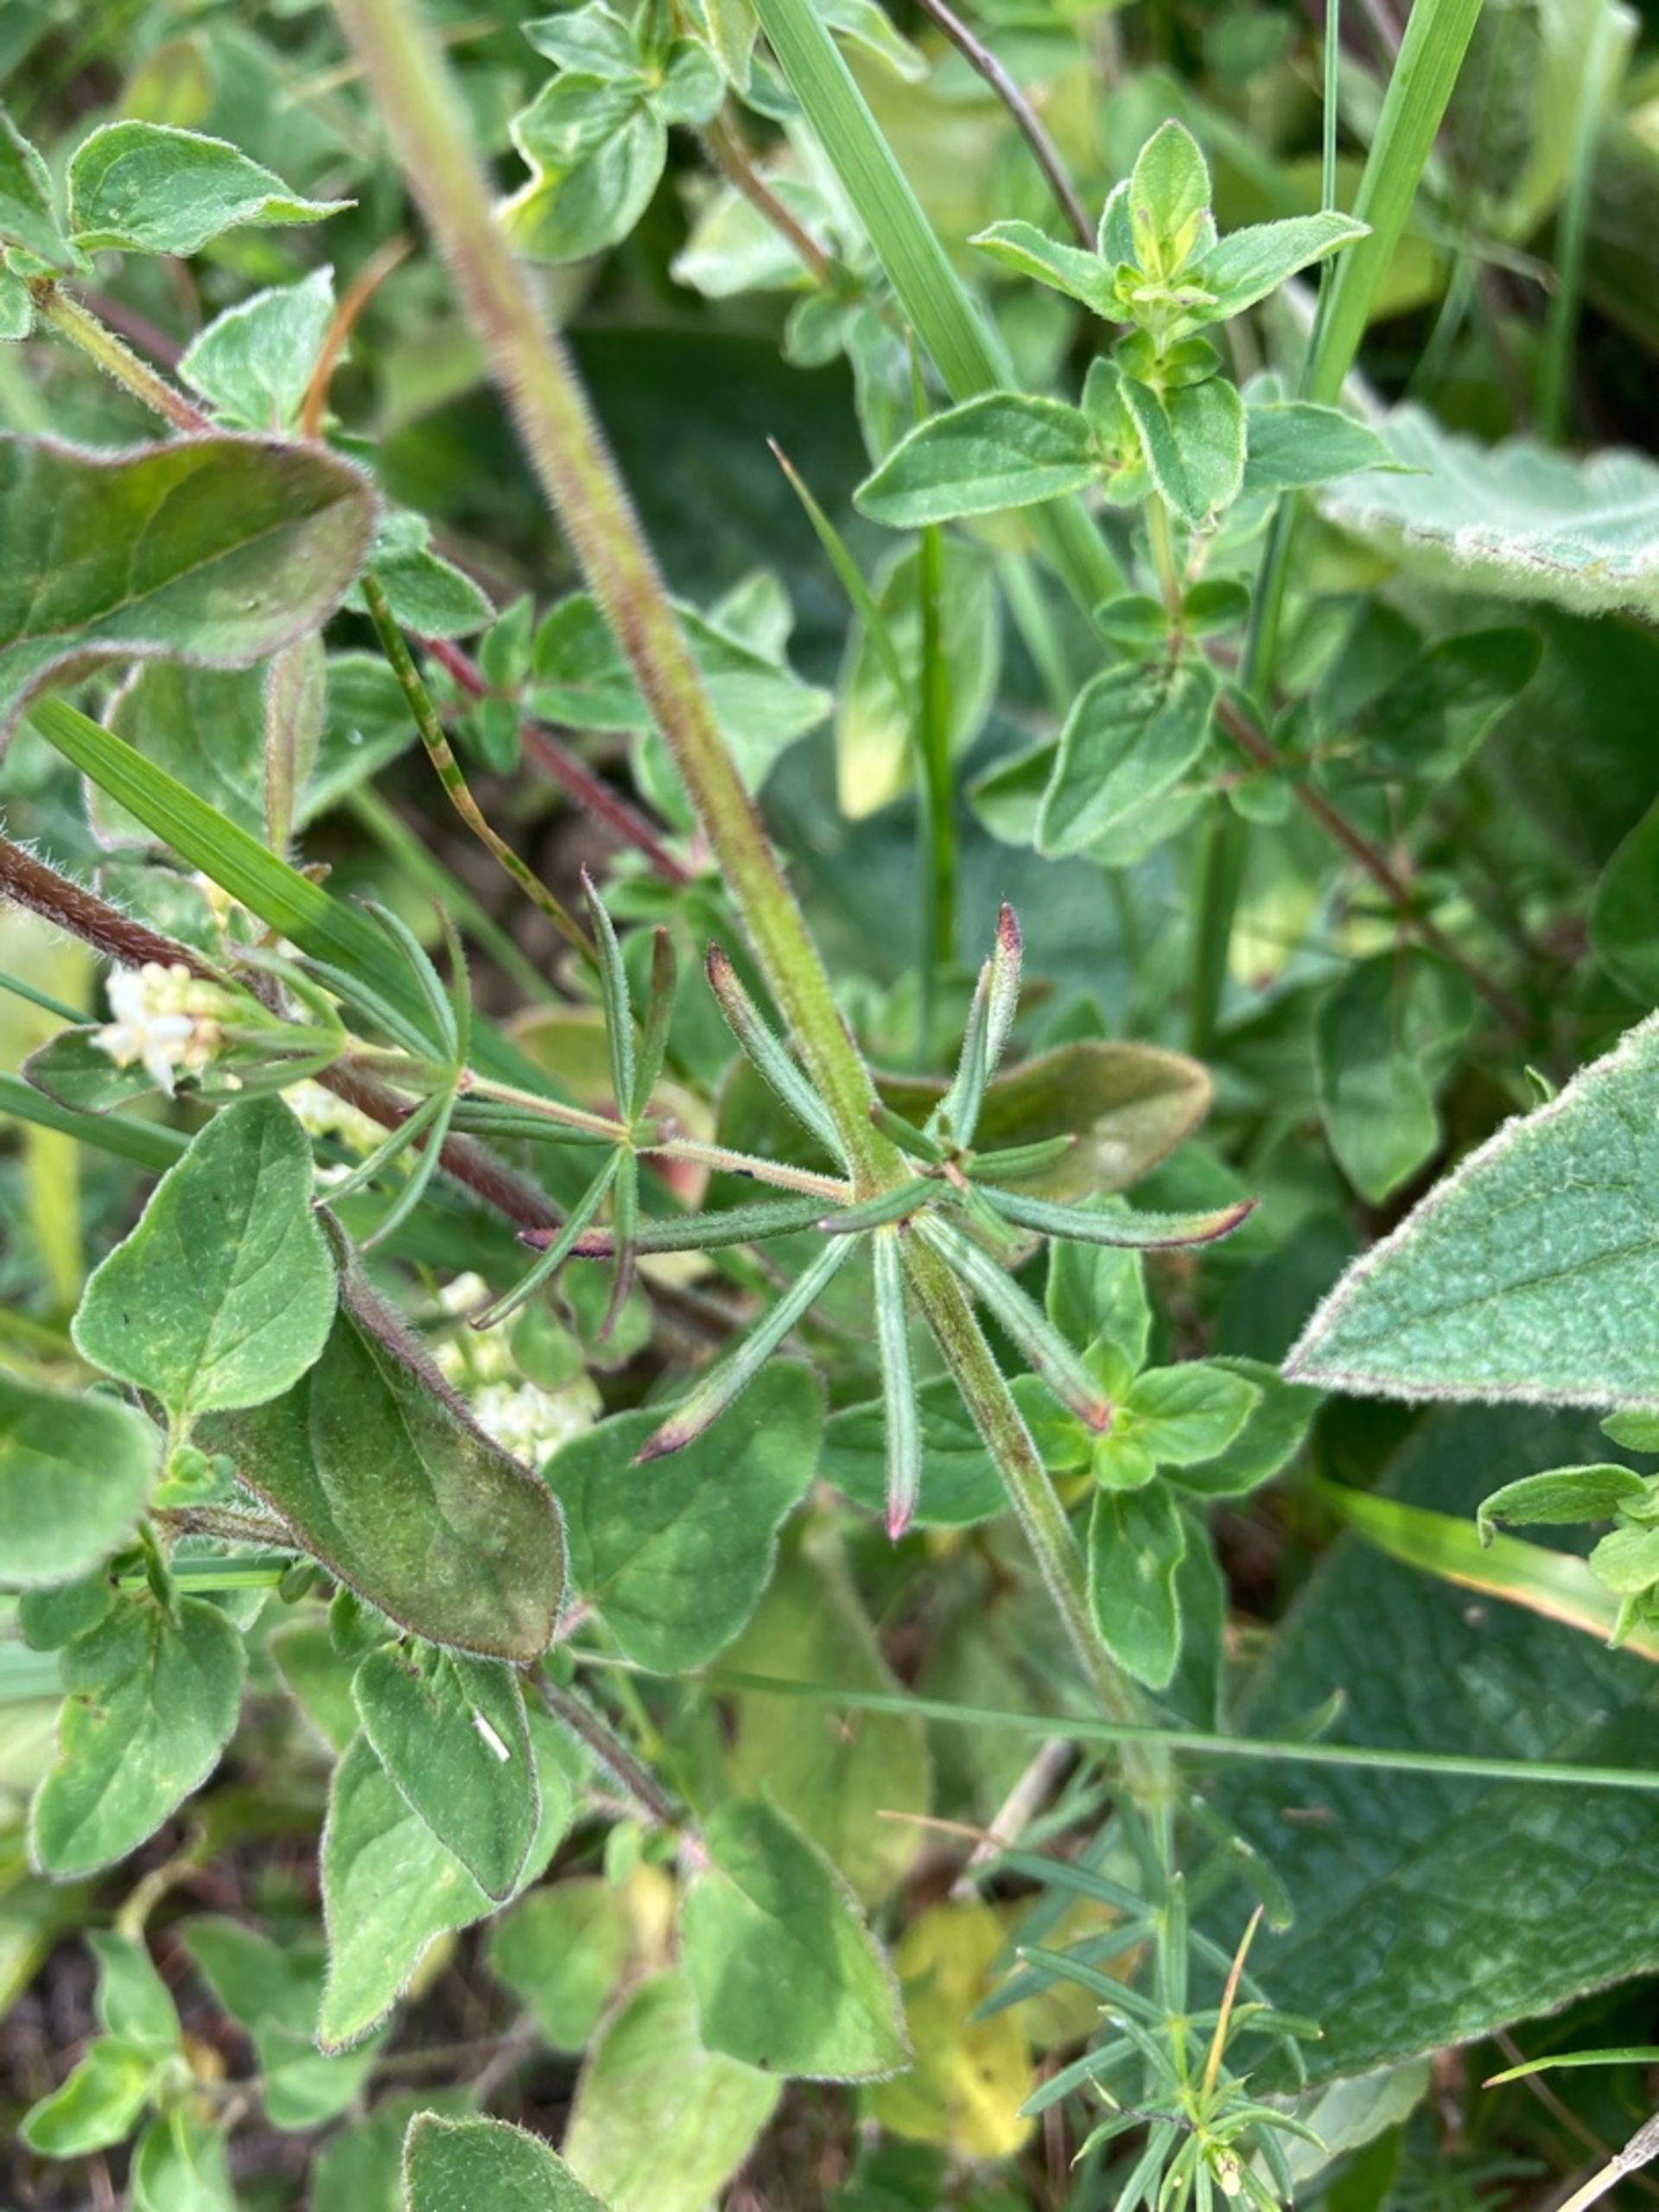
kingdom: Plantae
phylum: Tracheophyta
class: Magnoliopsida
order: Gentianales
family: Rubiaceae
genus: Galium
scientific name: Galium mollugo
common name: Hvid snerre
